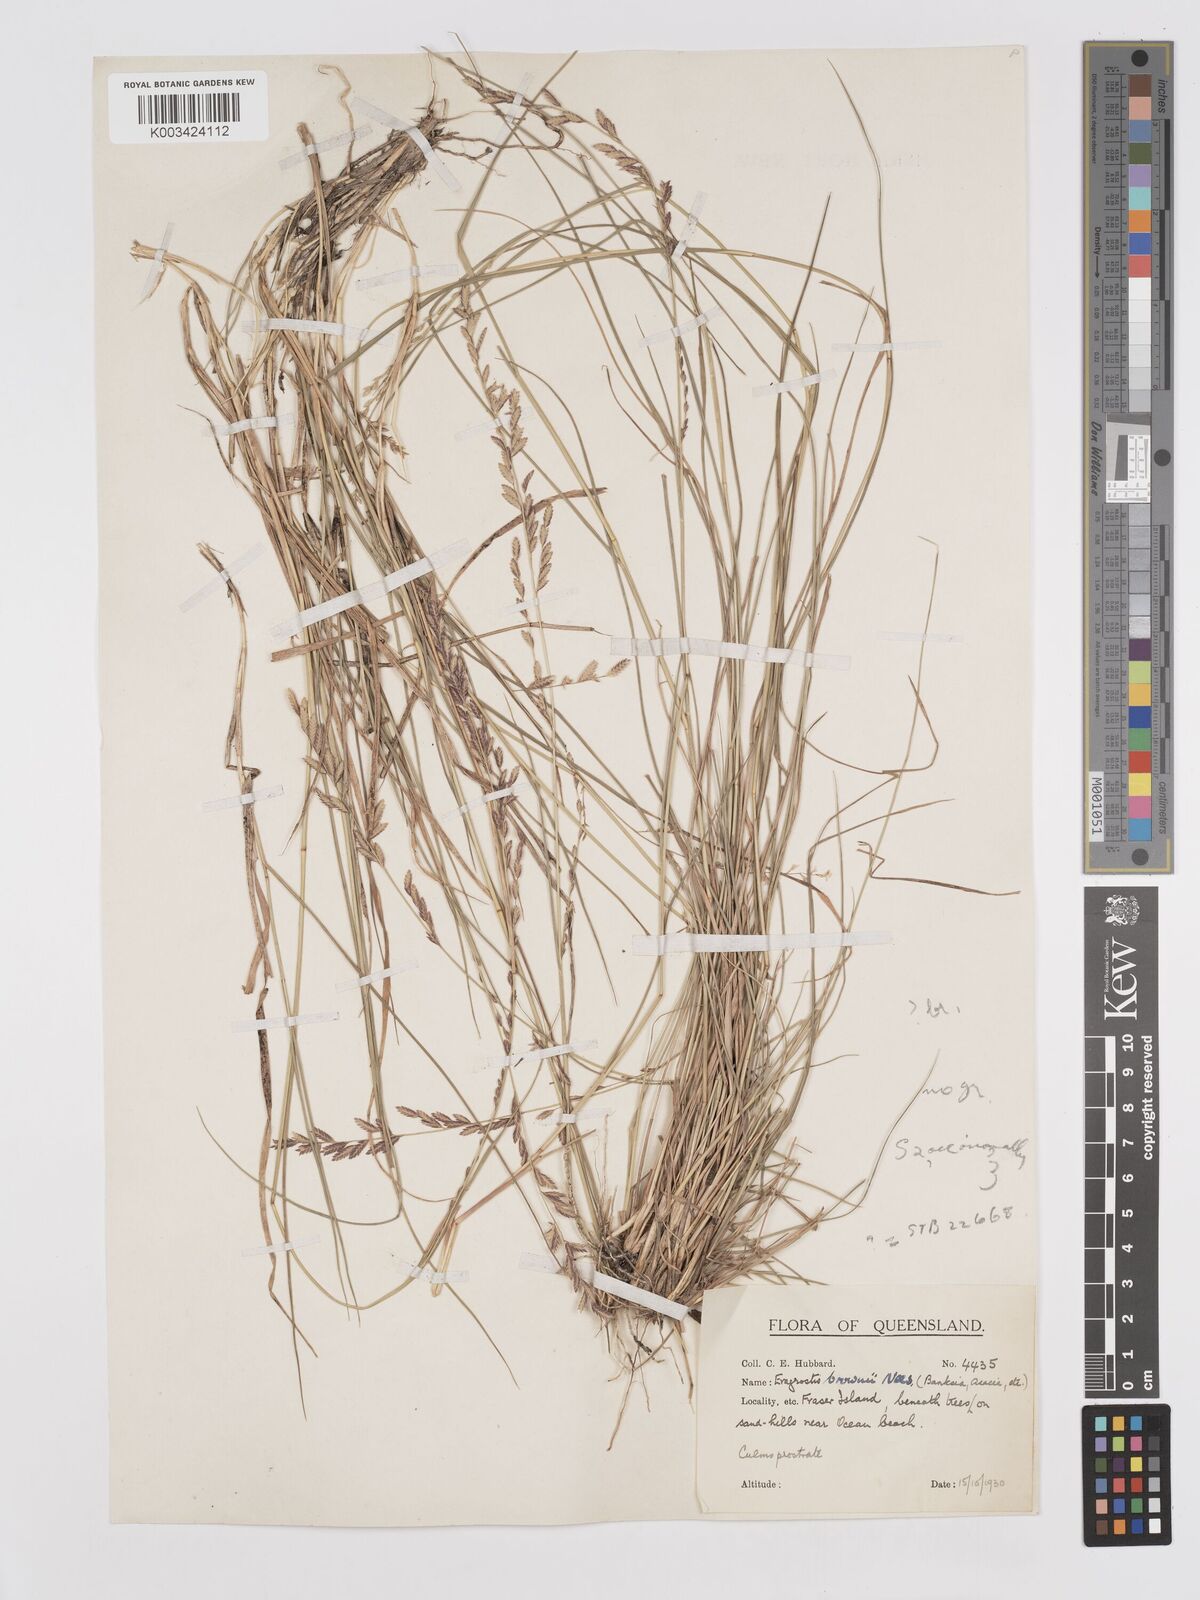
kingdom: Plantae
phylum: Tracheophyta
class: Liliopsida
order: Poales
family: Poaceae
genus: Eragrostis
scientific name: Eragrostis brownii
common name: Lovegrass
